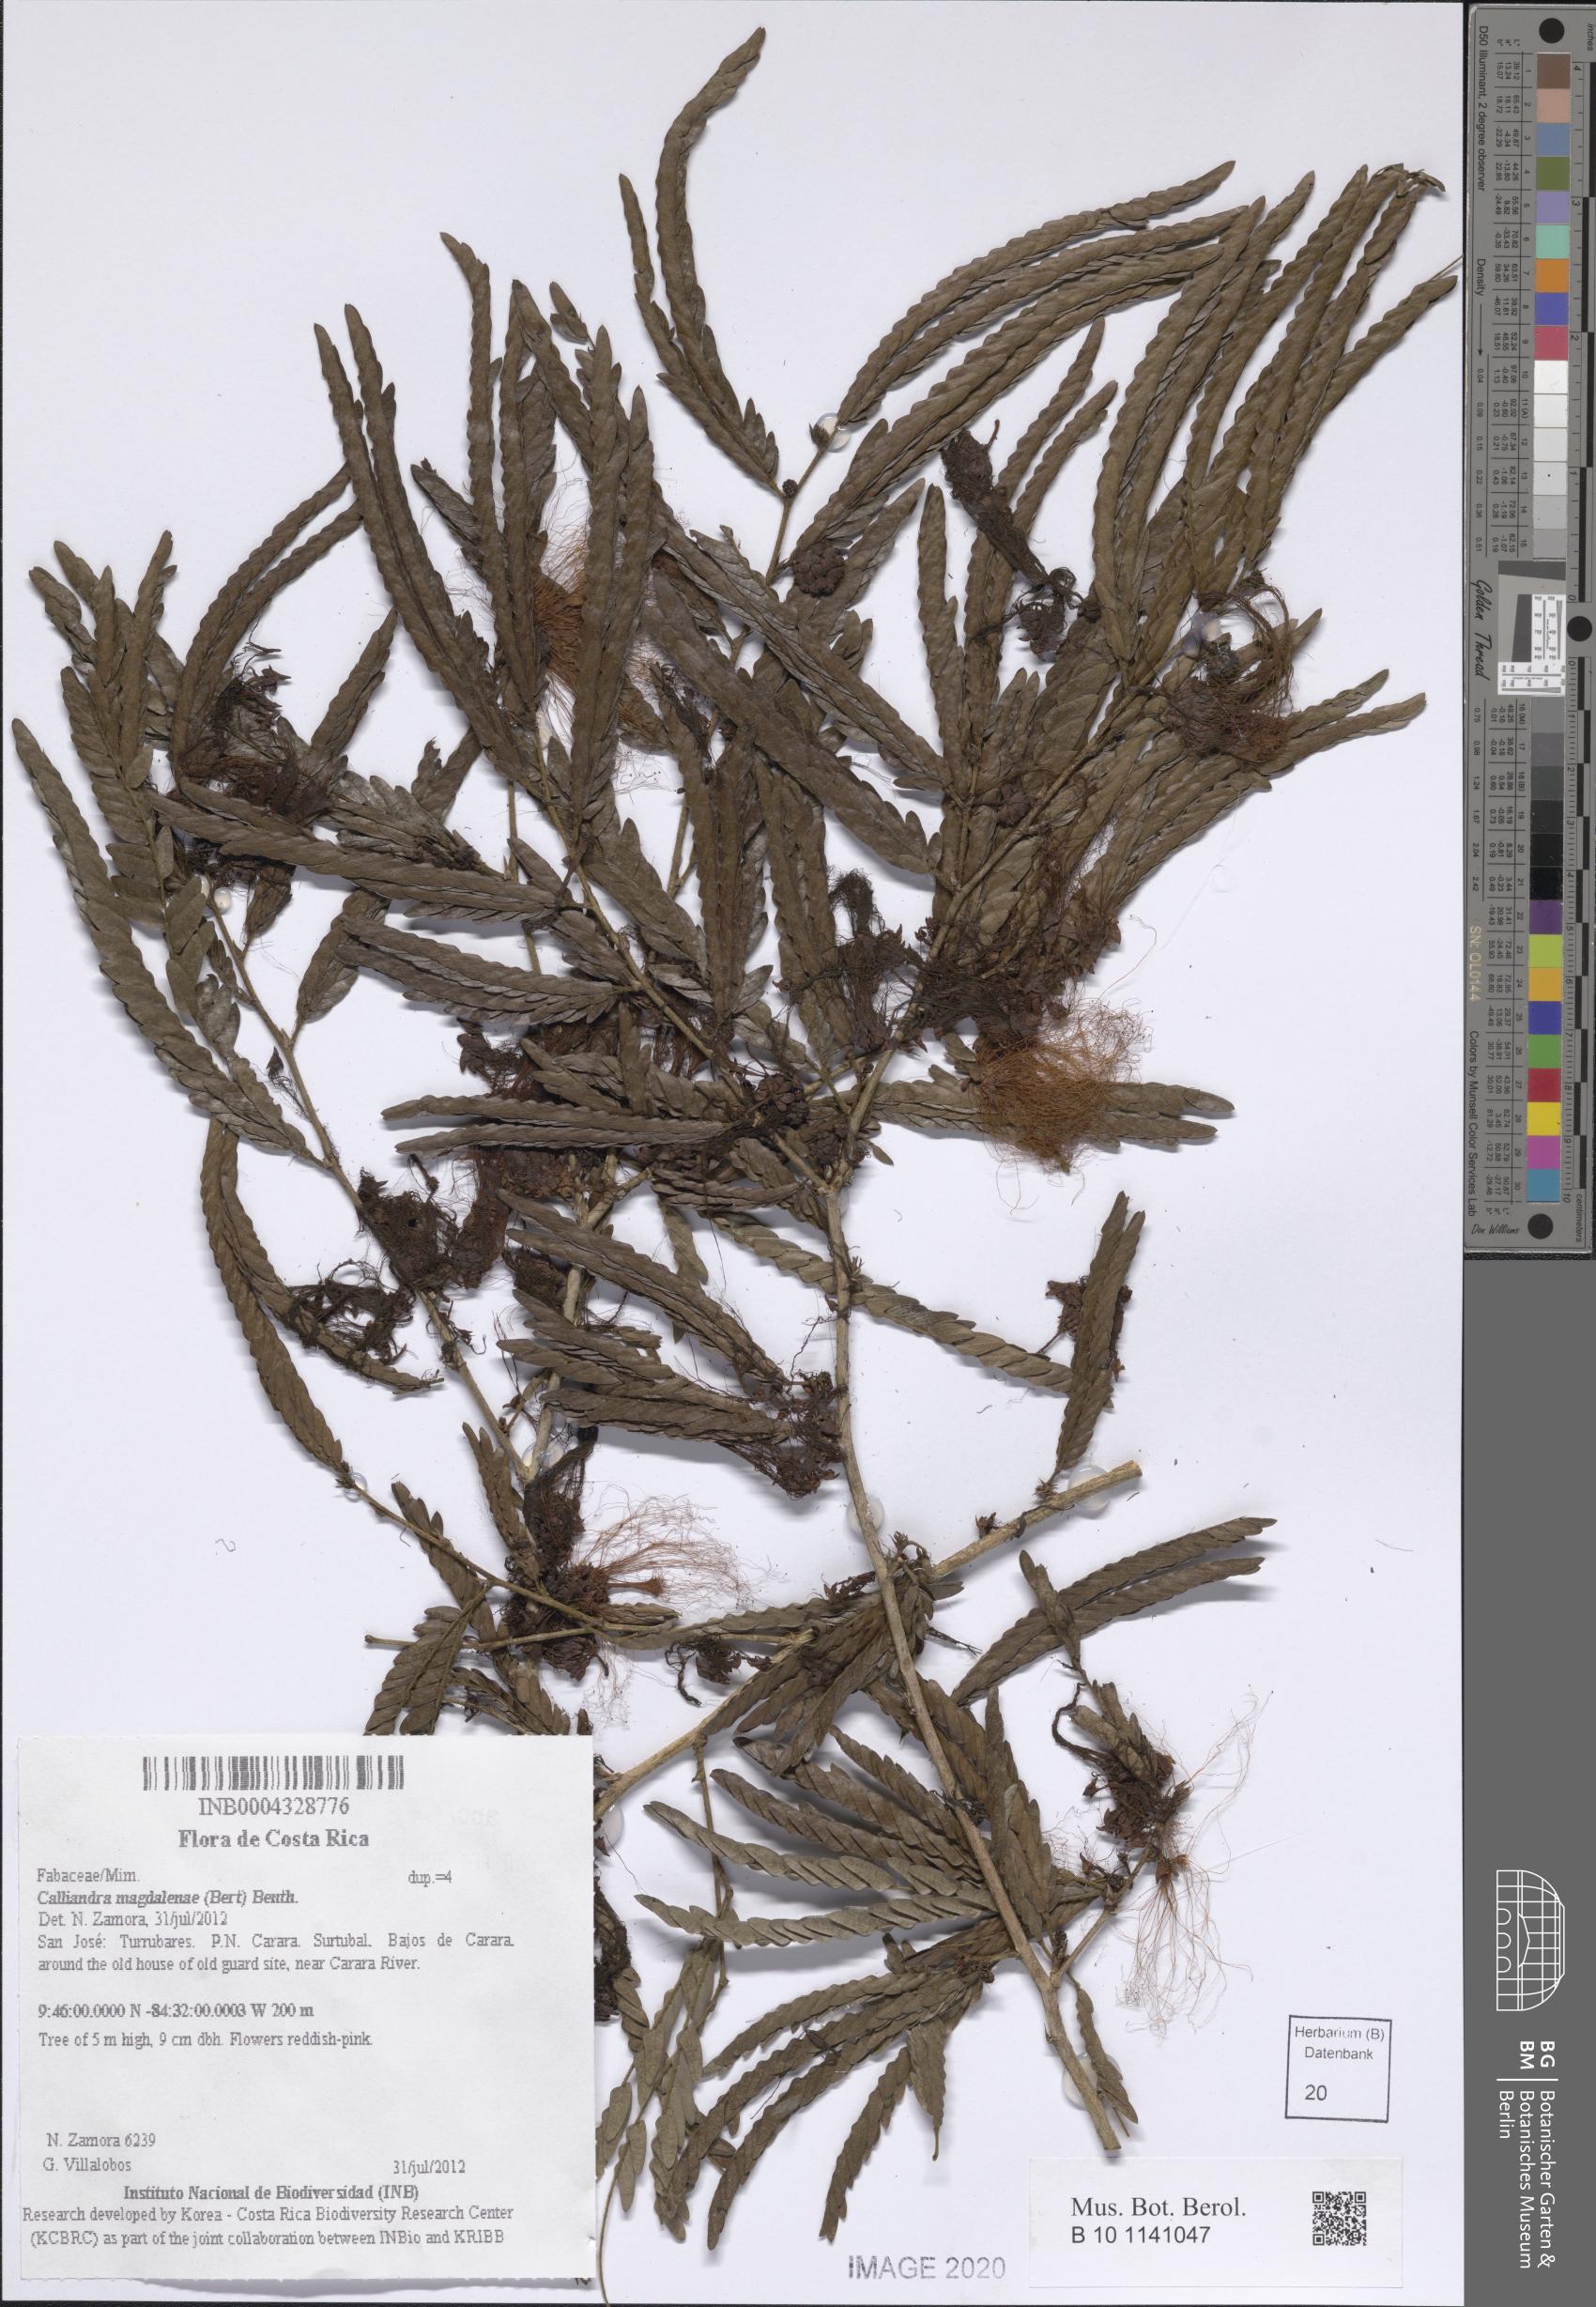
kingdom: Plantae
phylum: Tracheophyta
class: Magnoliopsida
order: Fabales
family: Fabaceae
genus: Calliandra
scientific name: Calliandra magdalenae
